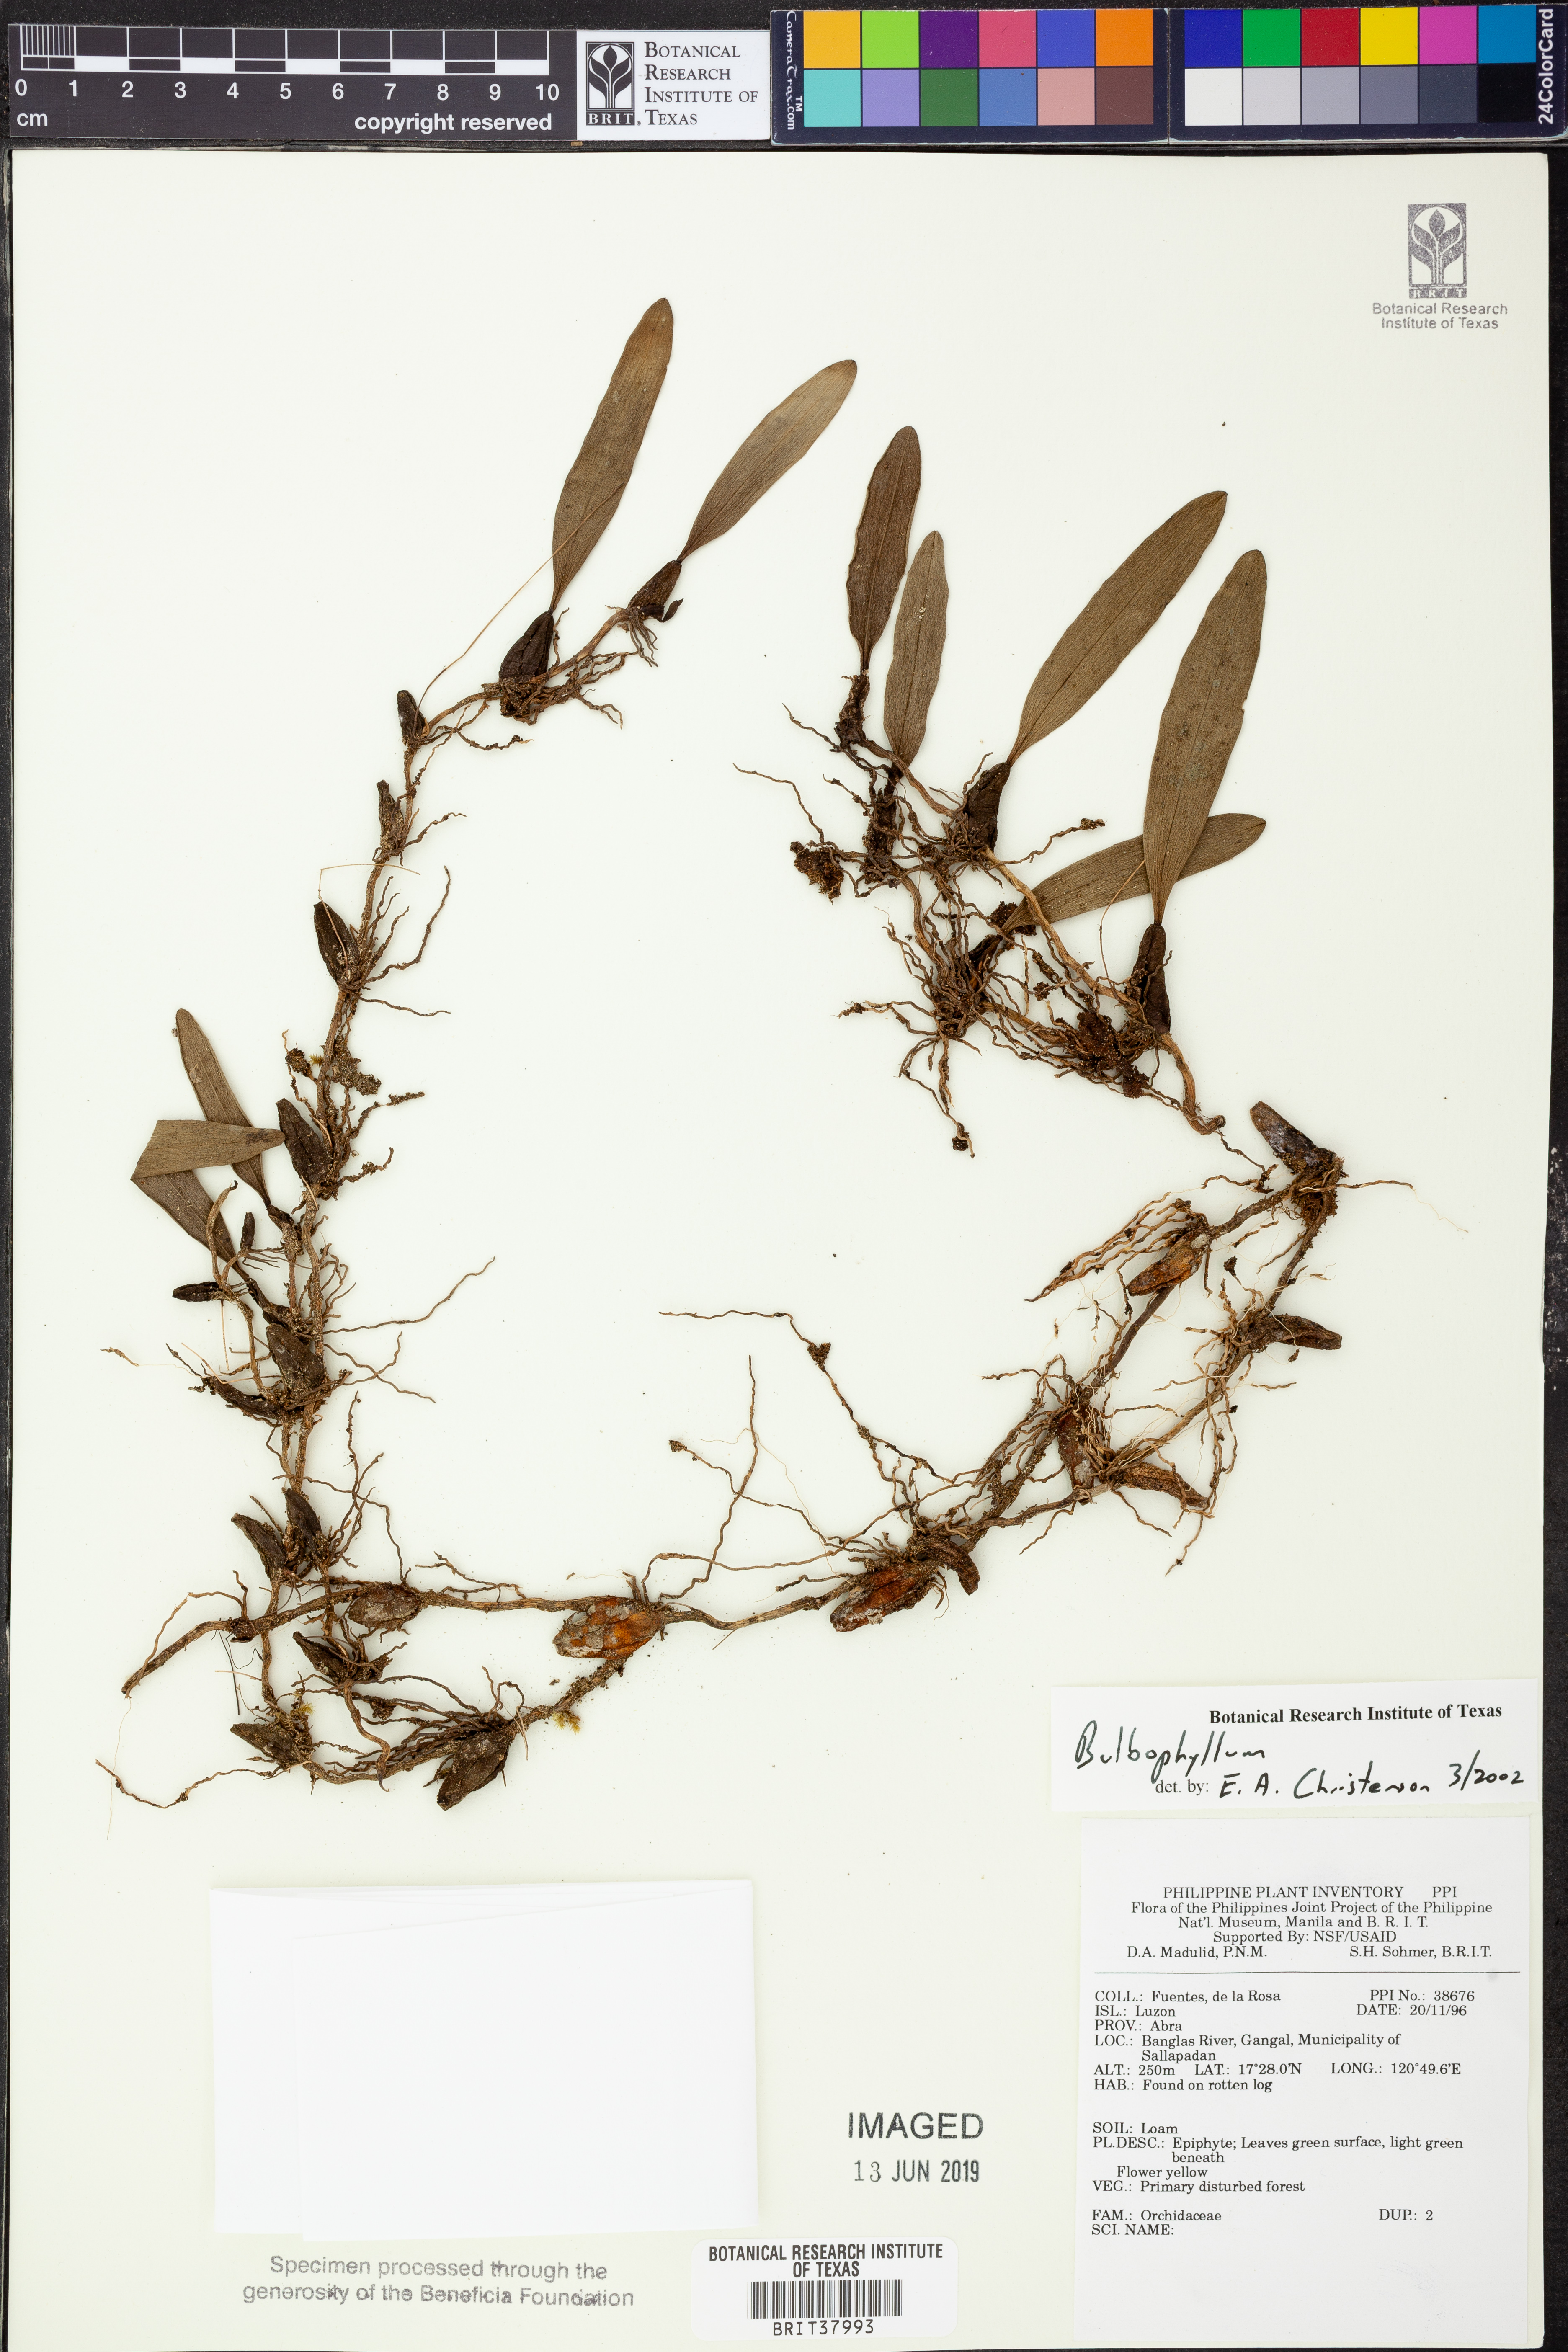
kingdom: Plantae
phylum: Tracheophyta
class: Liliopsida
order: Asparagales
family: Orchidaceae
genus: Bulbophyllum
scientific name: Bulbophyllum
